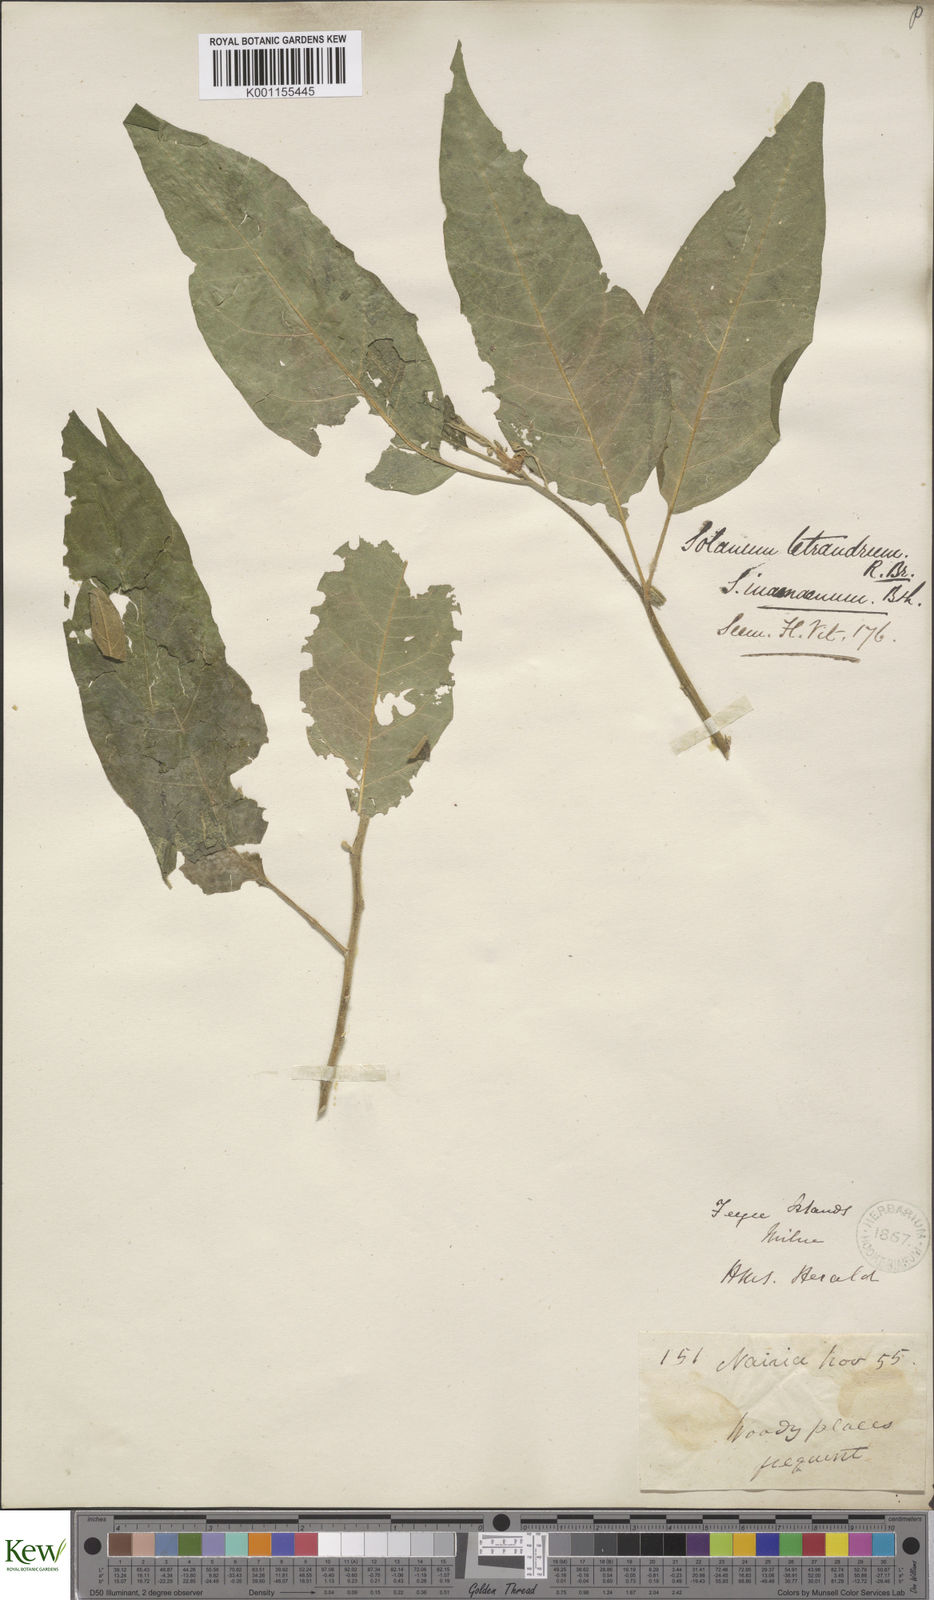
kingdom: Plantae
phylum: Tracheophyta
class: Magnoliopsida
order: Solanales
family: Solanaceae
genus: Solanum
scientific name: Solanum inamoenum
